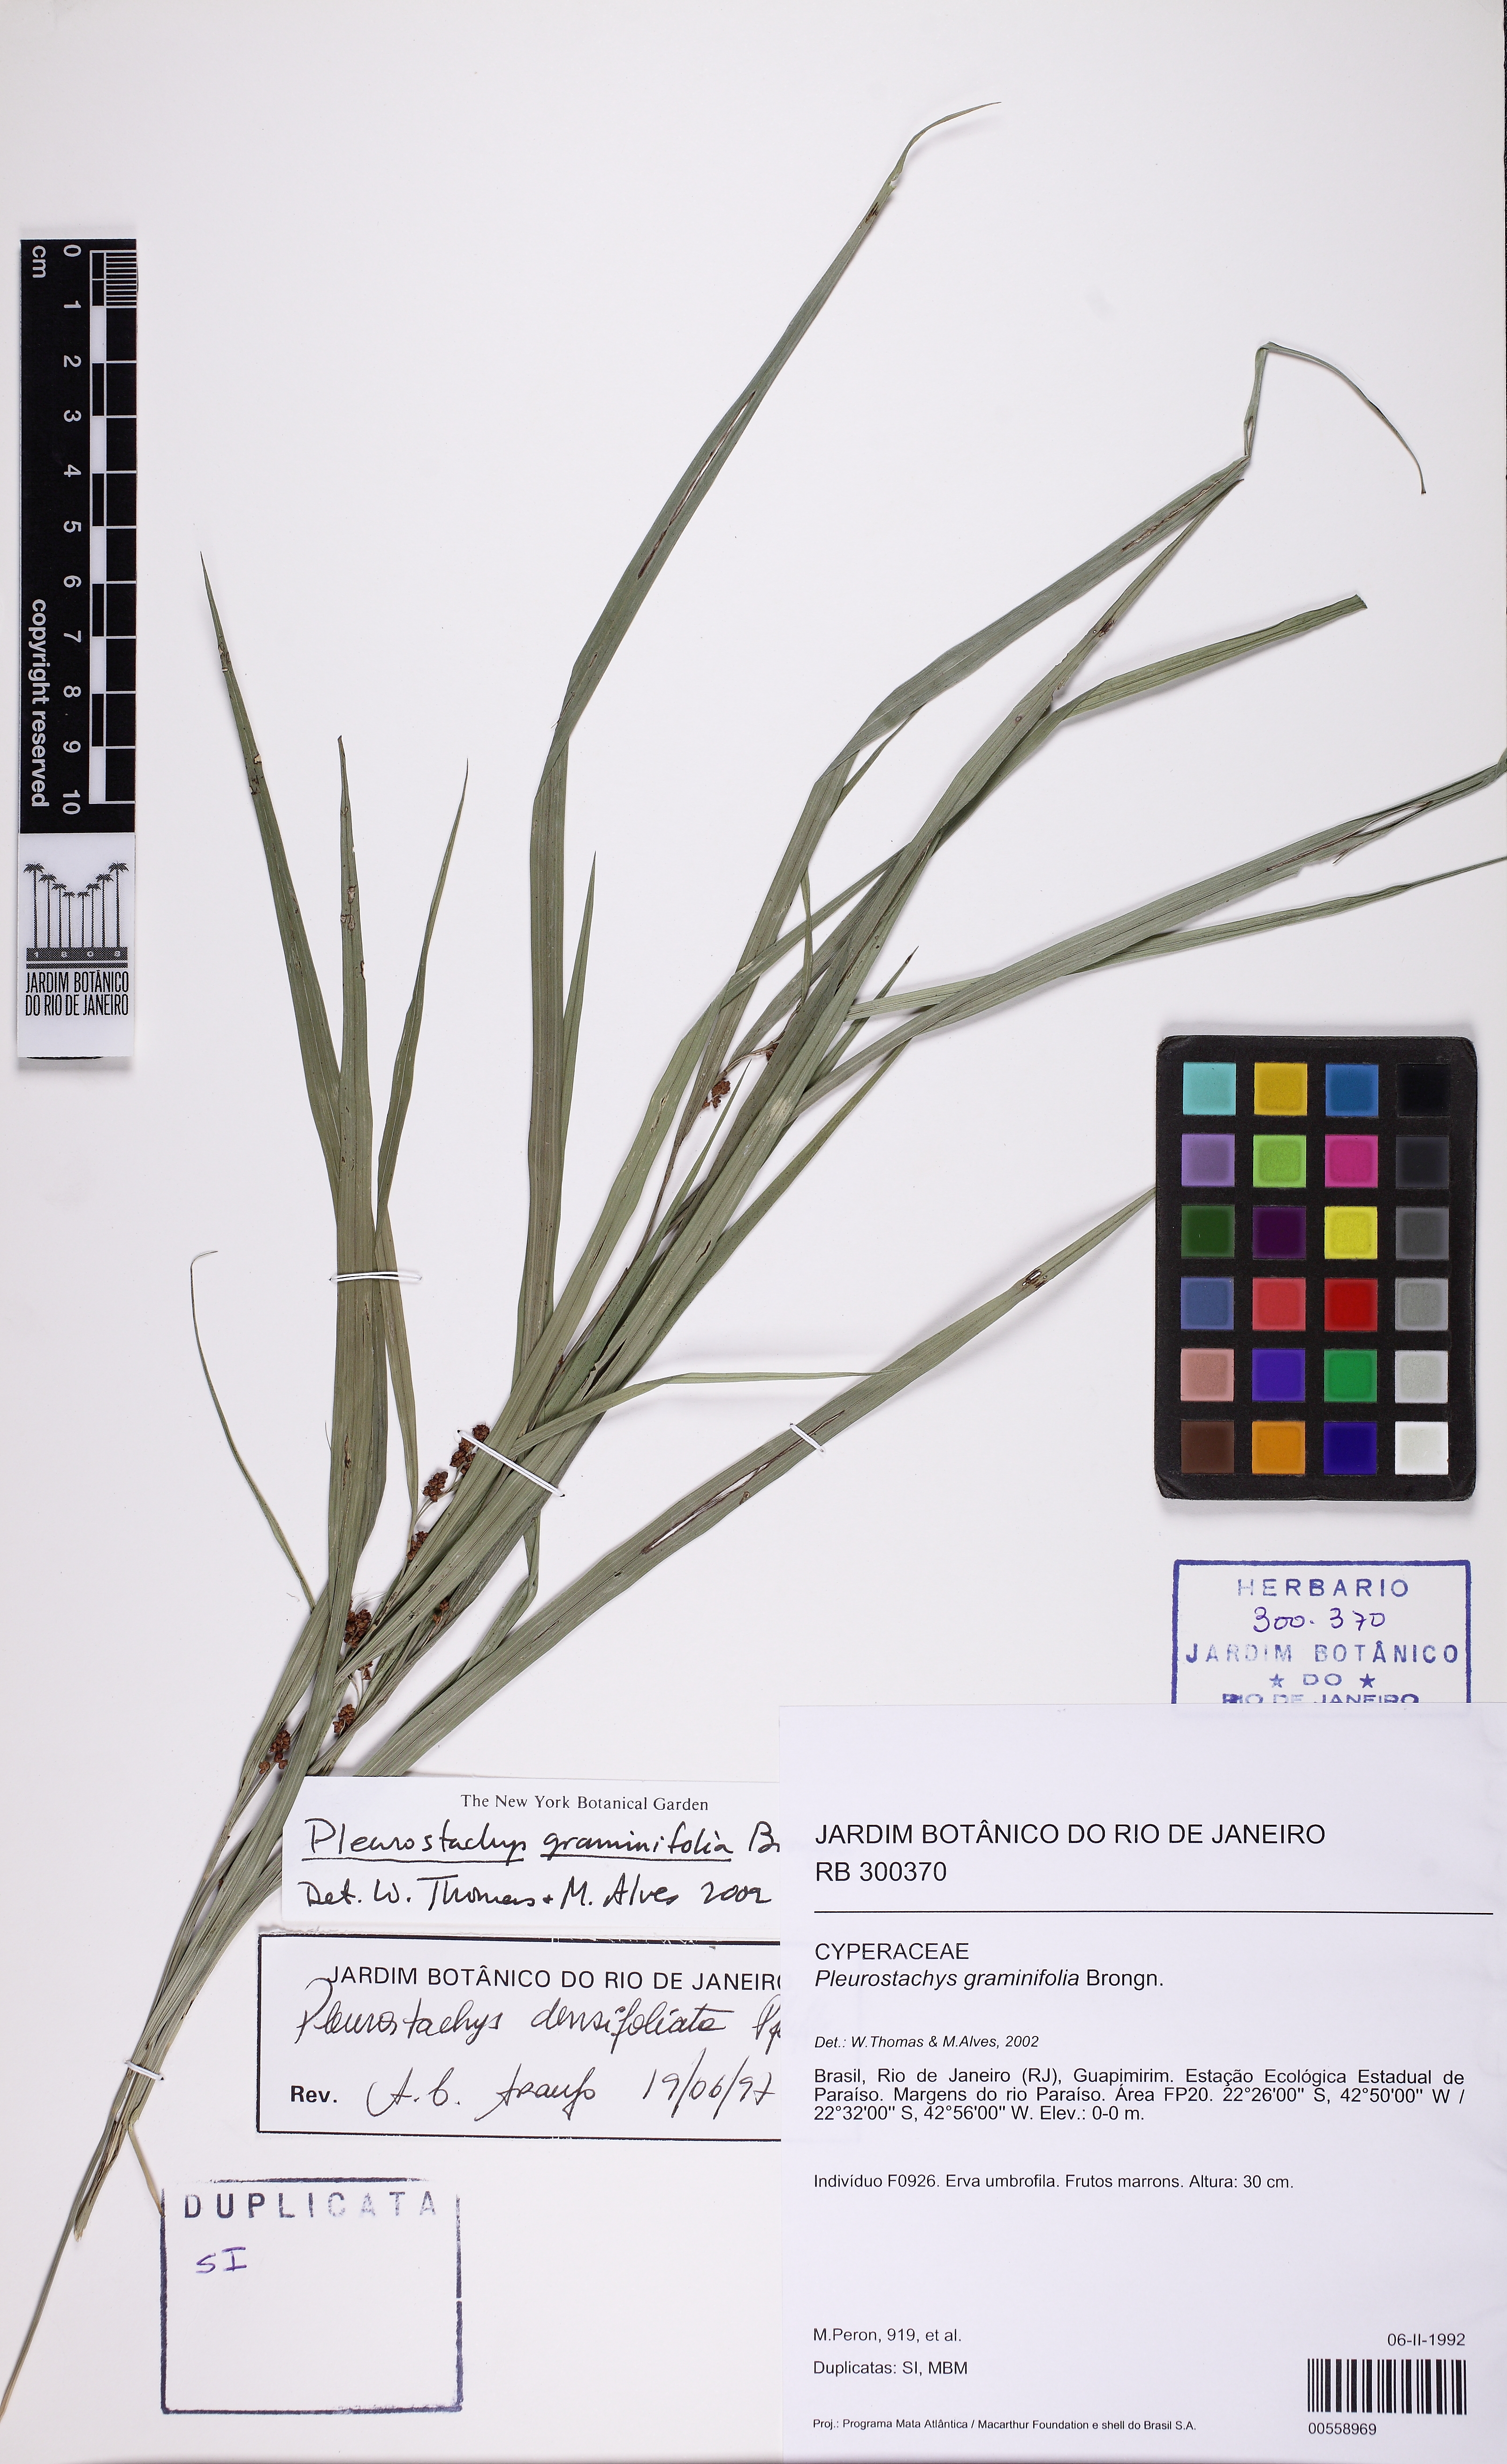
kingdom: Plantae
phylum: Tracheophyta
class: Liliopsida
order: Poales
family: Cyperaceae
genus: Rhynchospora
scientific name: Rhynchospora pilulifera
